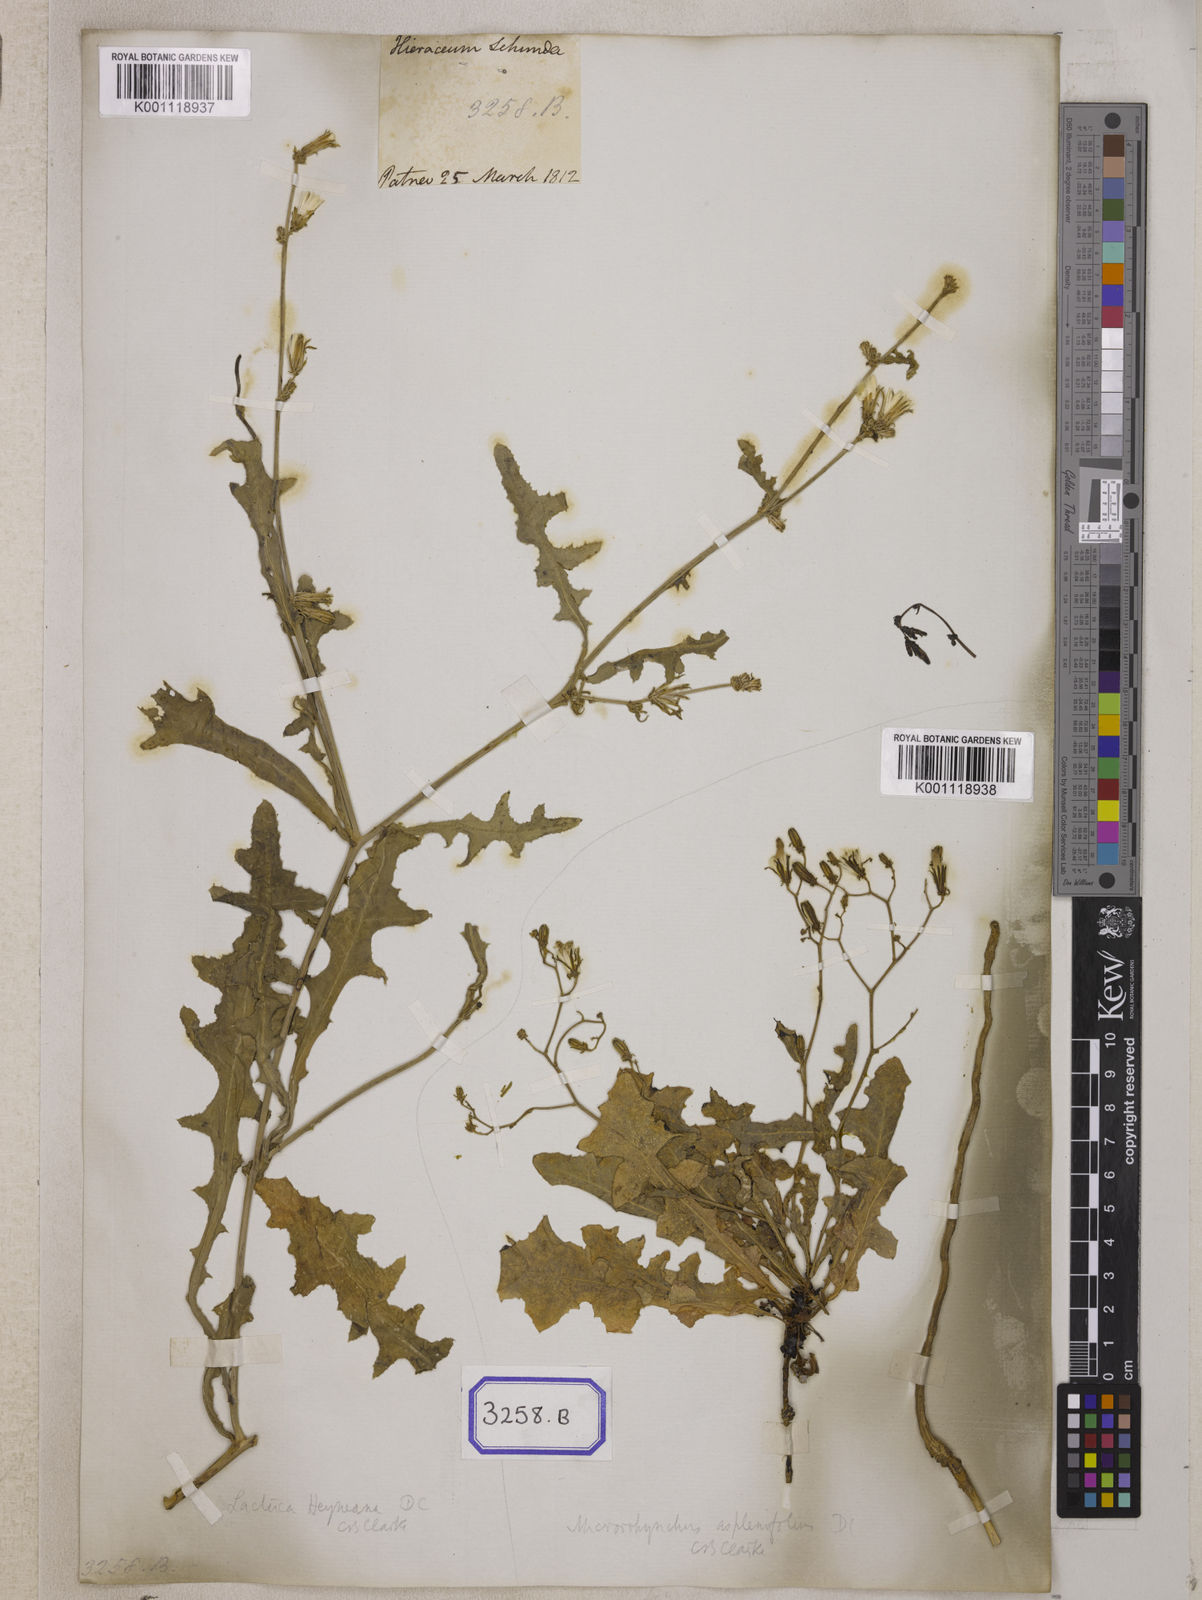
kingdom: Plantae
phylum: Tracheophyta
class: Magnoliopsida
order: Asterales
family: Asteraceae
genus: Launaea
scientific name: Launaea procumbens
